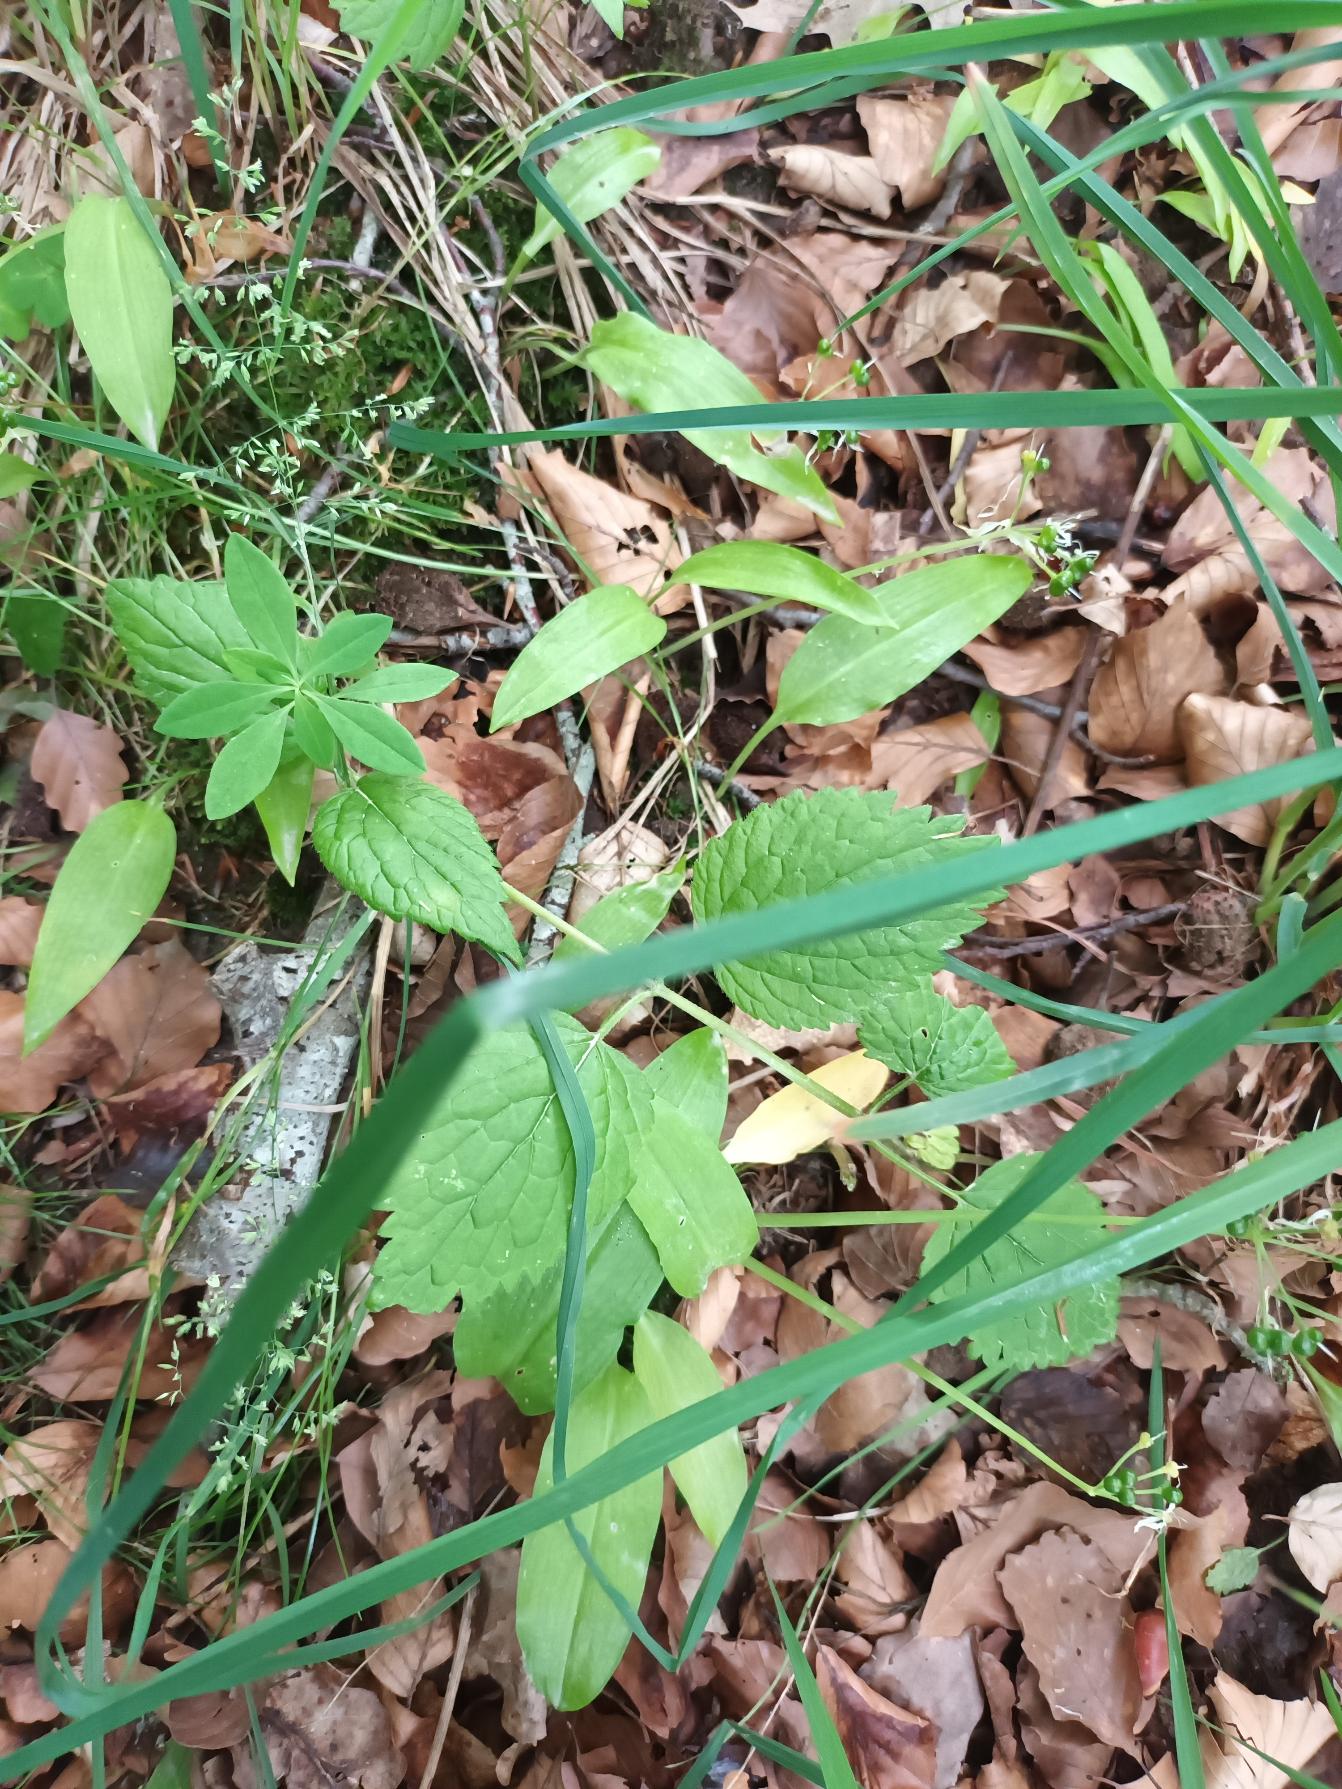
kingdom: Plantae
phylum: Tracheophyta
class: Magnoliopsida
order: Lamiales
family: Lamiaceae
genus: Lamium
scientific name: Lamium galeobdolon
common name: Bjergguldnælde
